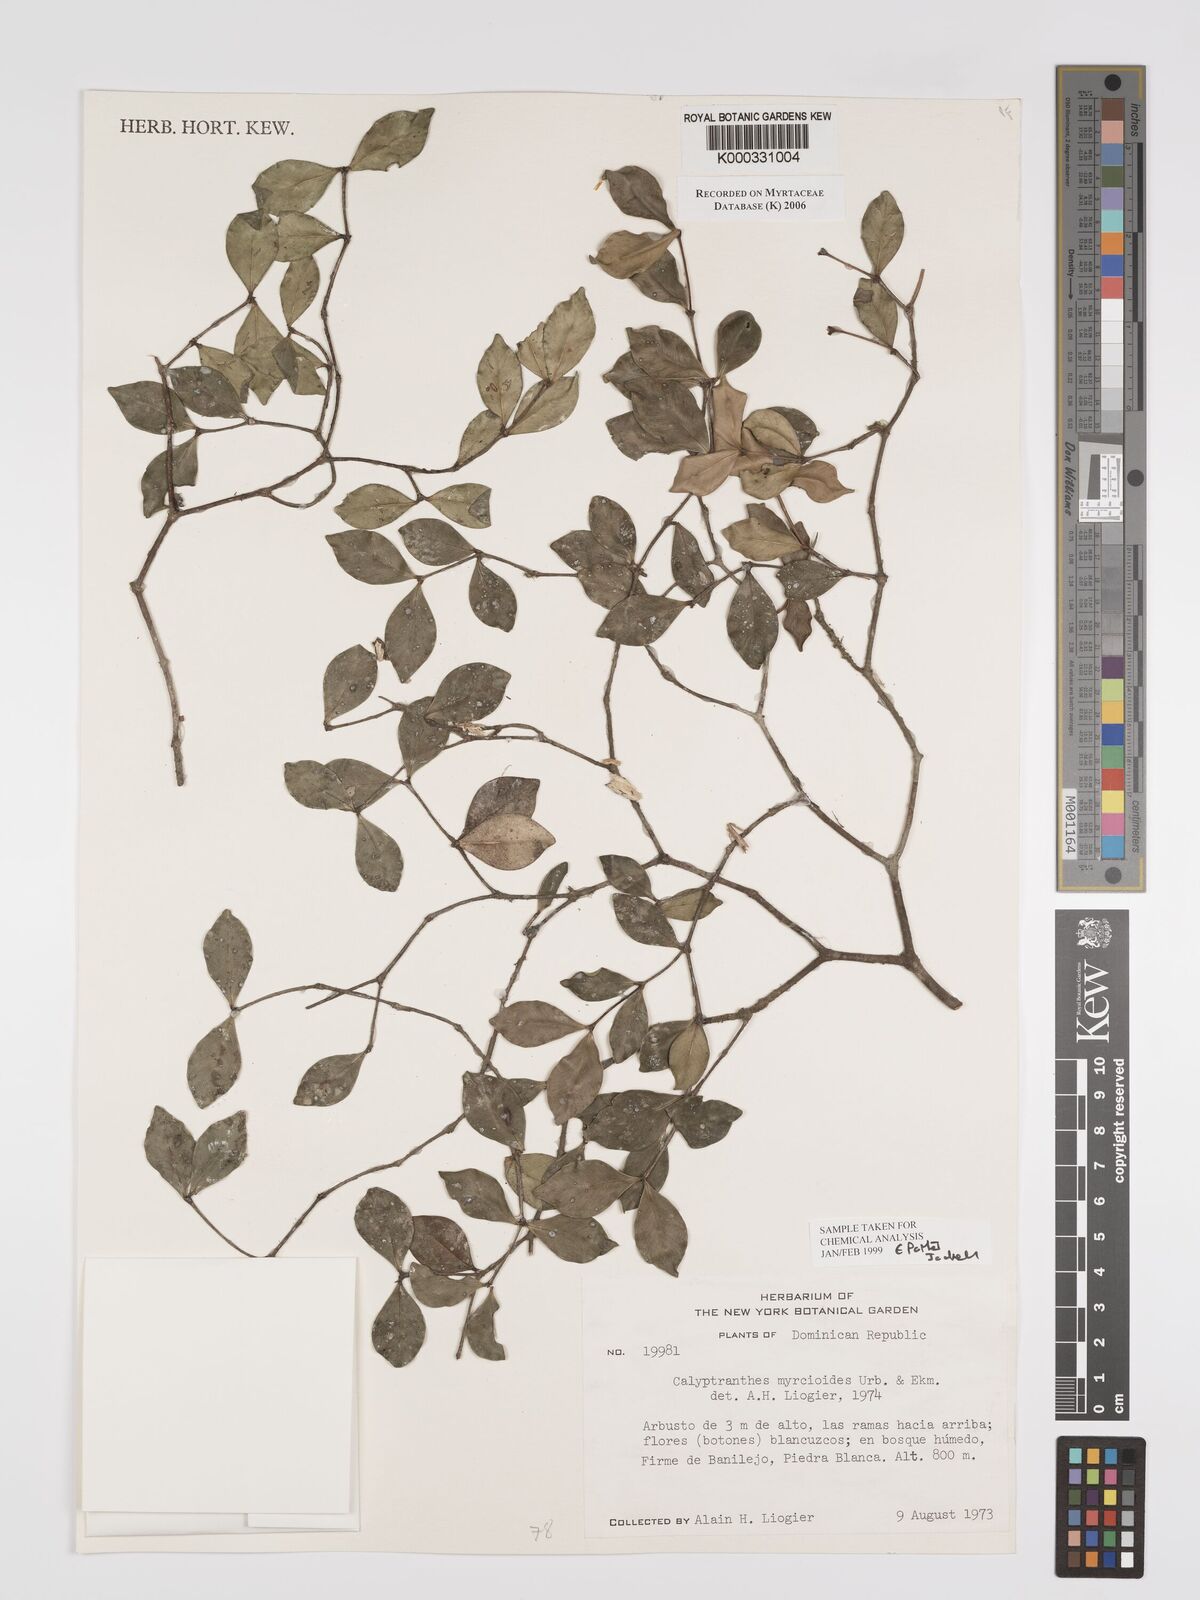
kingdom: Plantae
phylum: Tracheophyta
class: Magnoliopsida
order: Myrtales
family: Myrtaceae
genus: Myrcia
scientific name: Myrcia neomyrcioides
